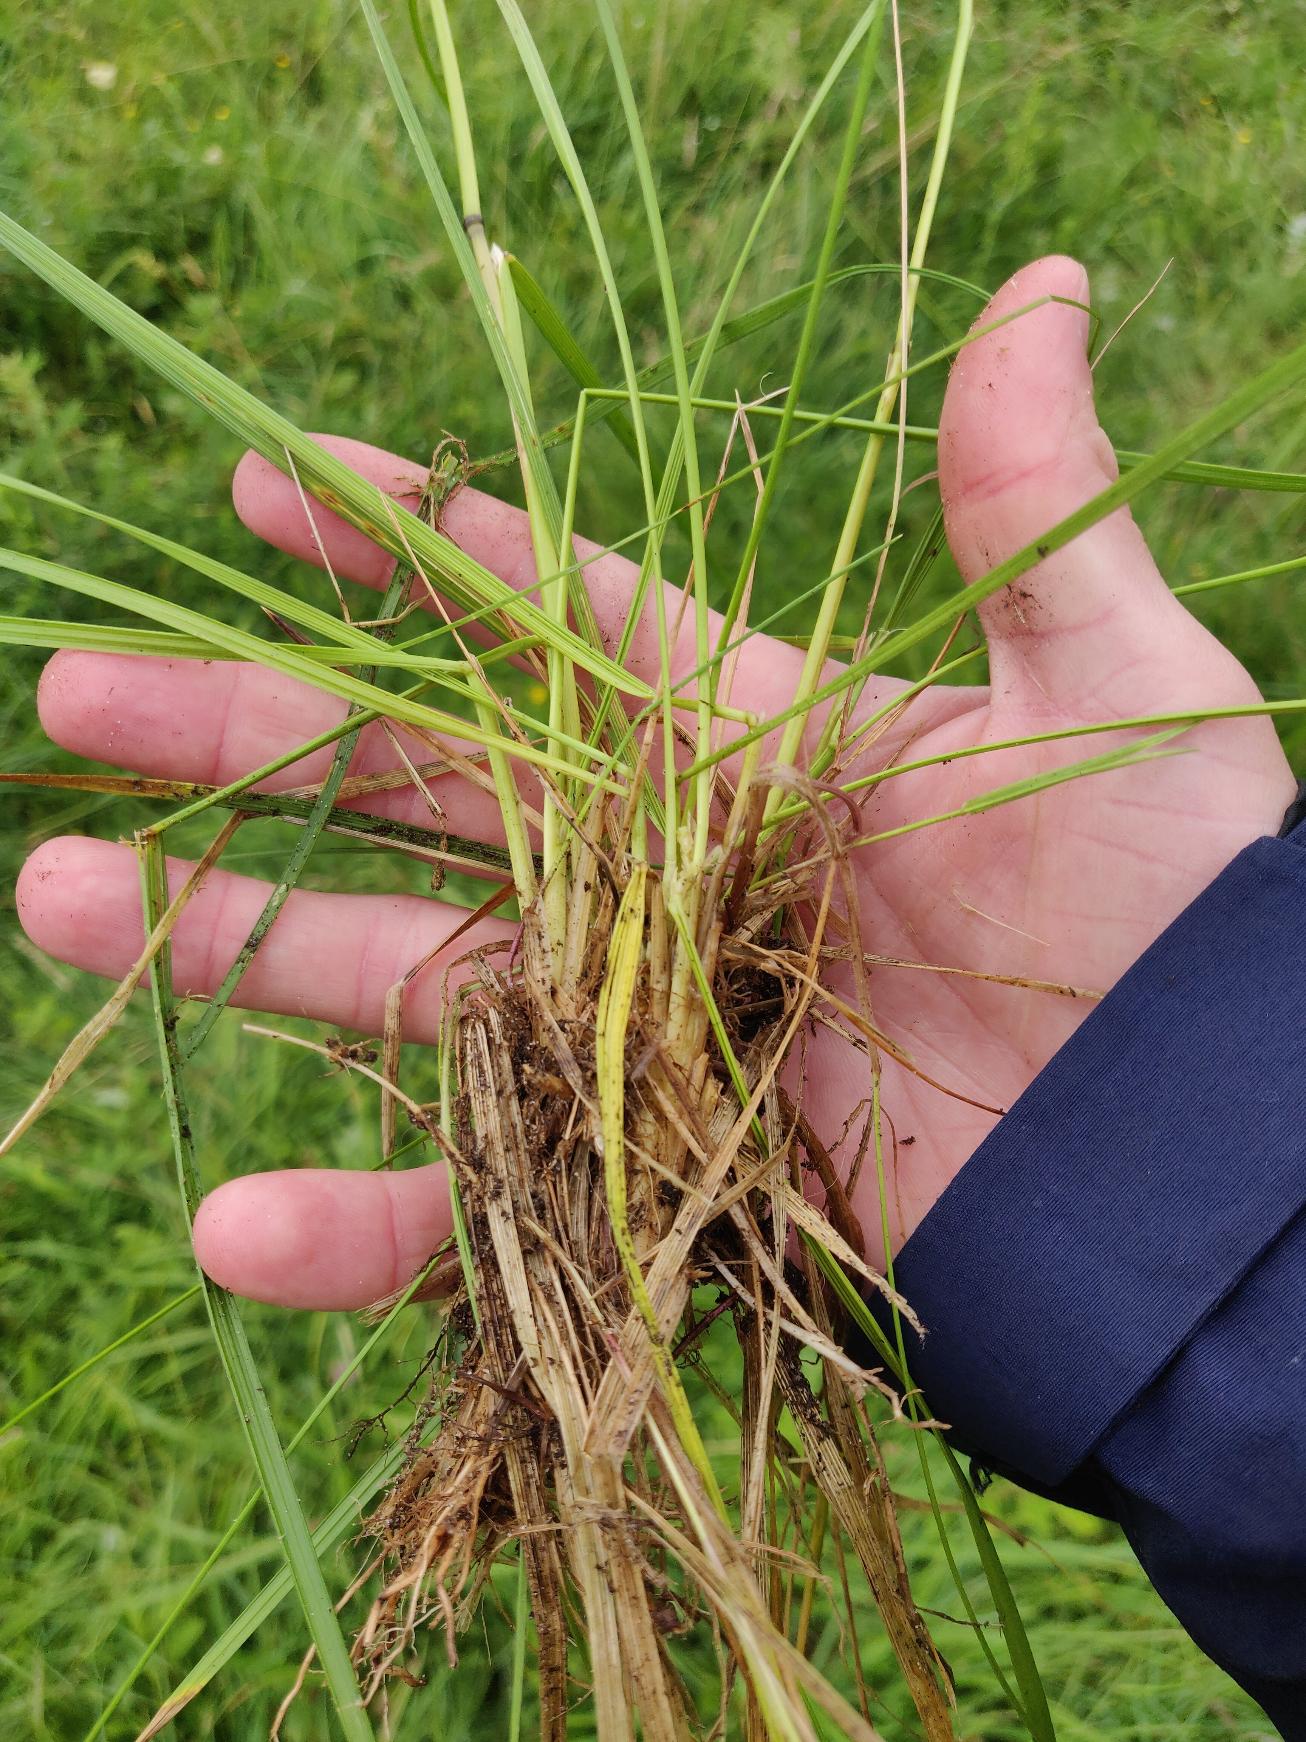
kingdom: Plantae
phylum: Tracheophyta
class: Liliopsida
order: Poales
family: Poaceae
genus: Deschampsia
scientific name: Deschampsia cespitosa
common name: Mose-bunke
